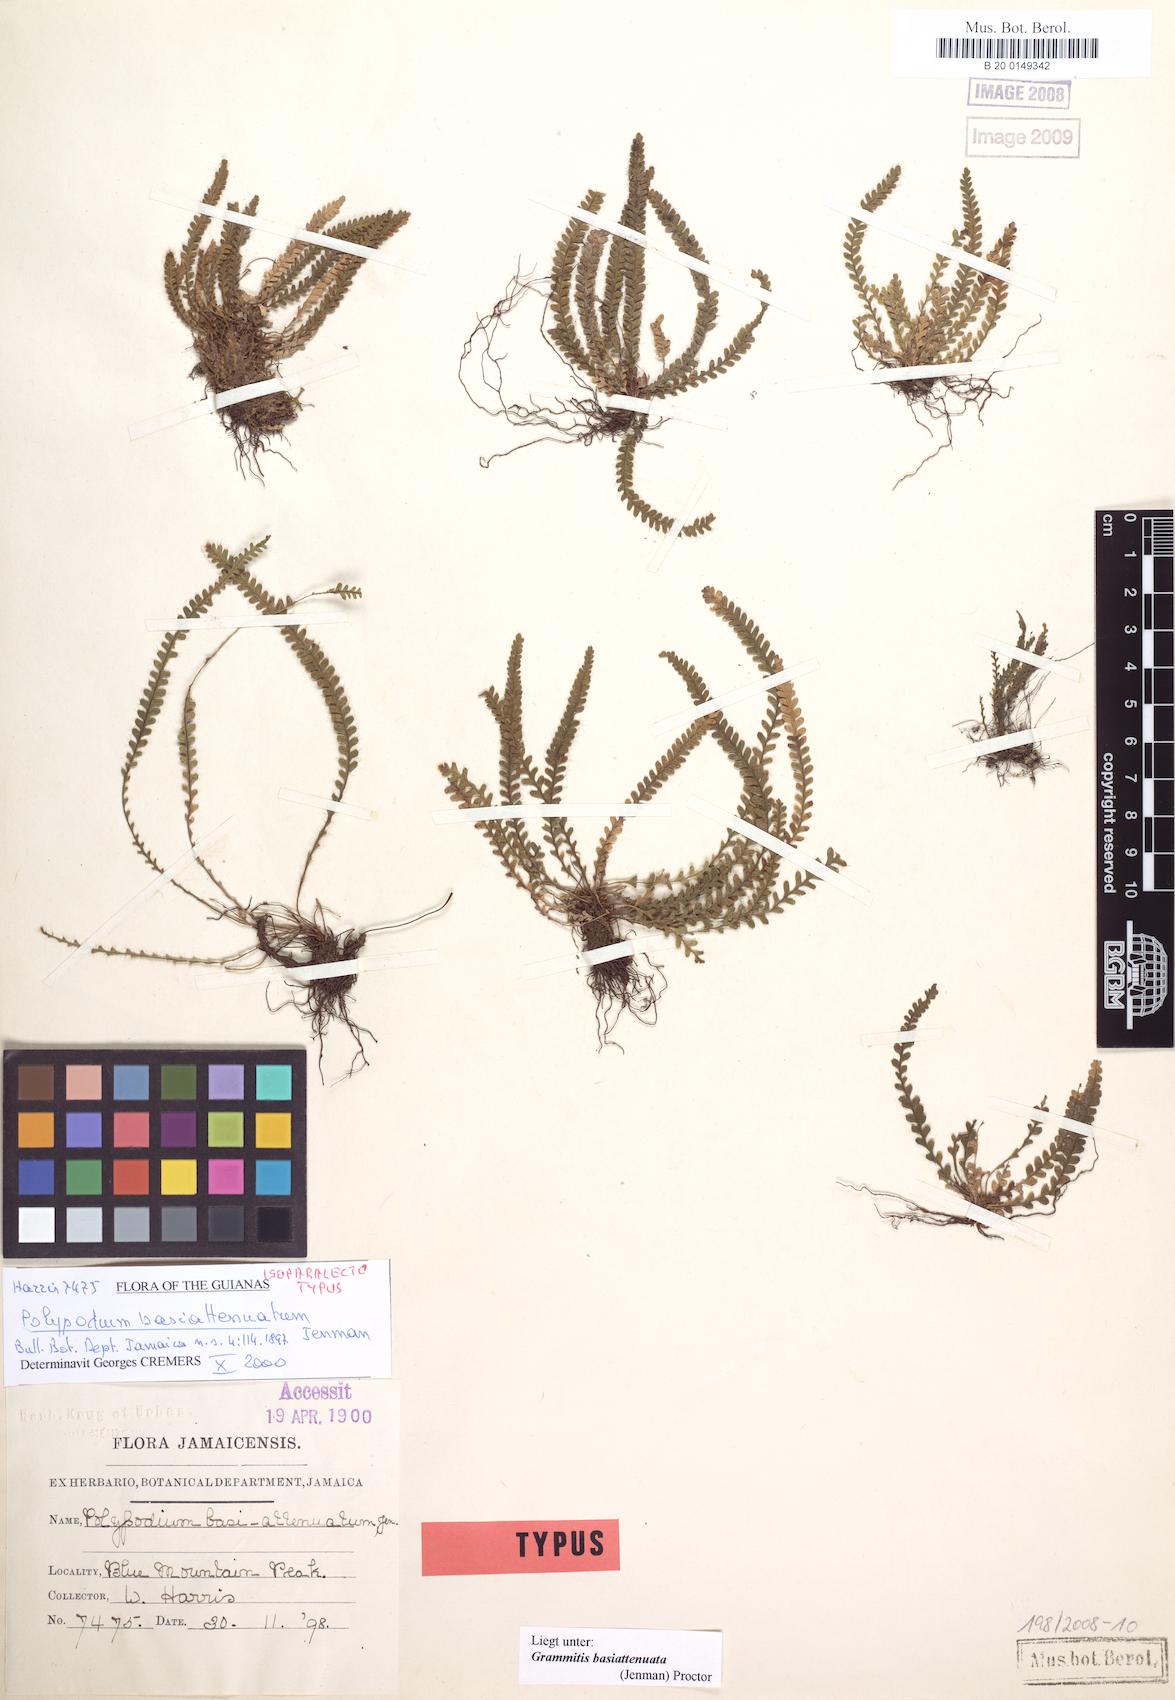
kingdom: Plantae
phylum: Tracheophyta
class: Polypodiopsida
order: Polypodiales
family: Polypodiaceae
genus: Moranopteris
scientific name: Moranopteris basiattenuata
